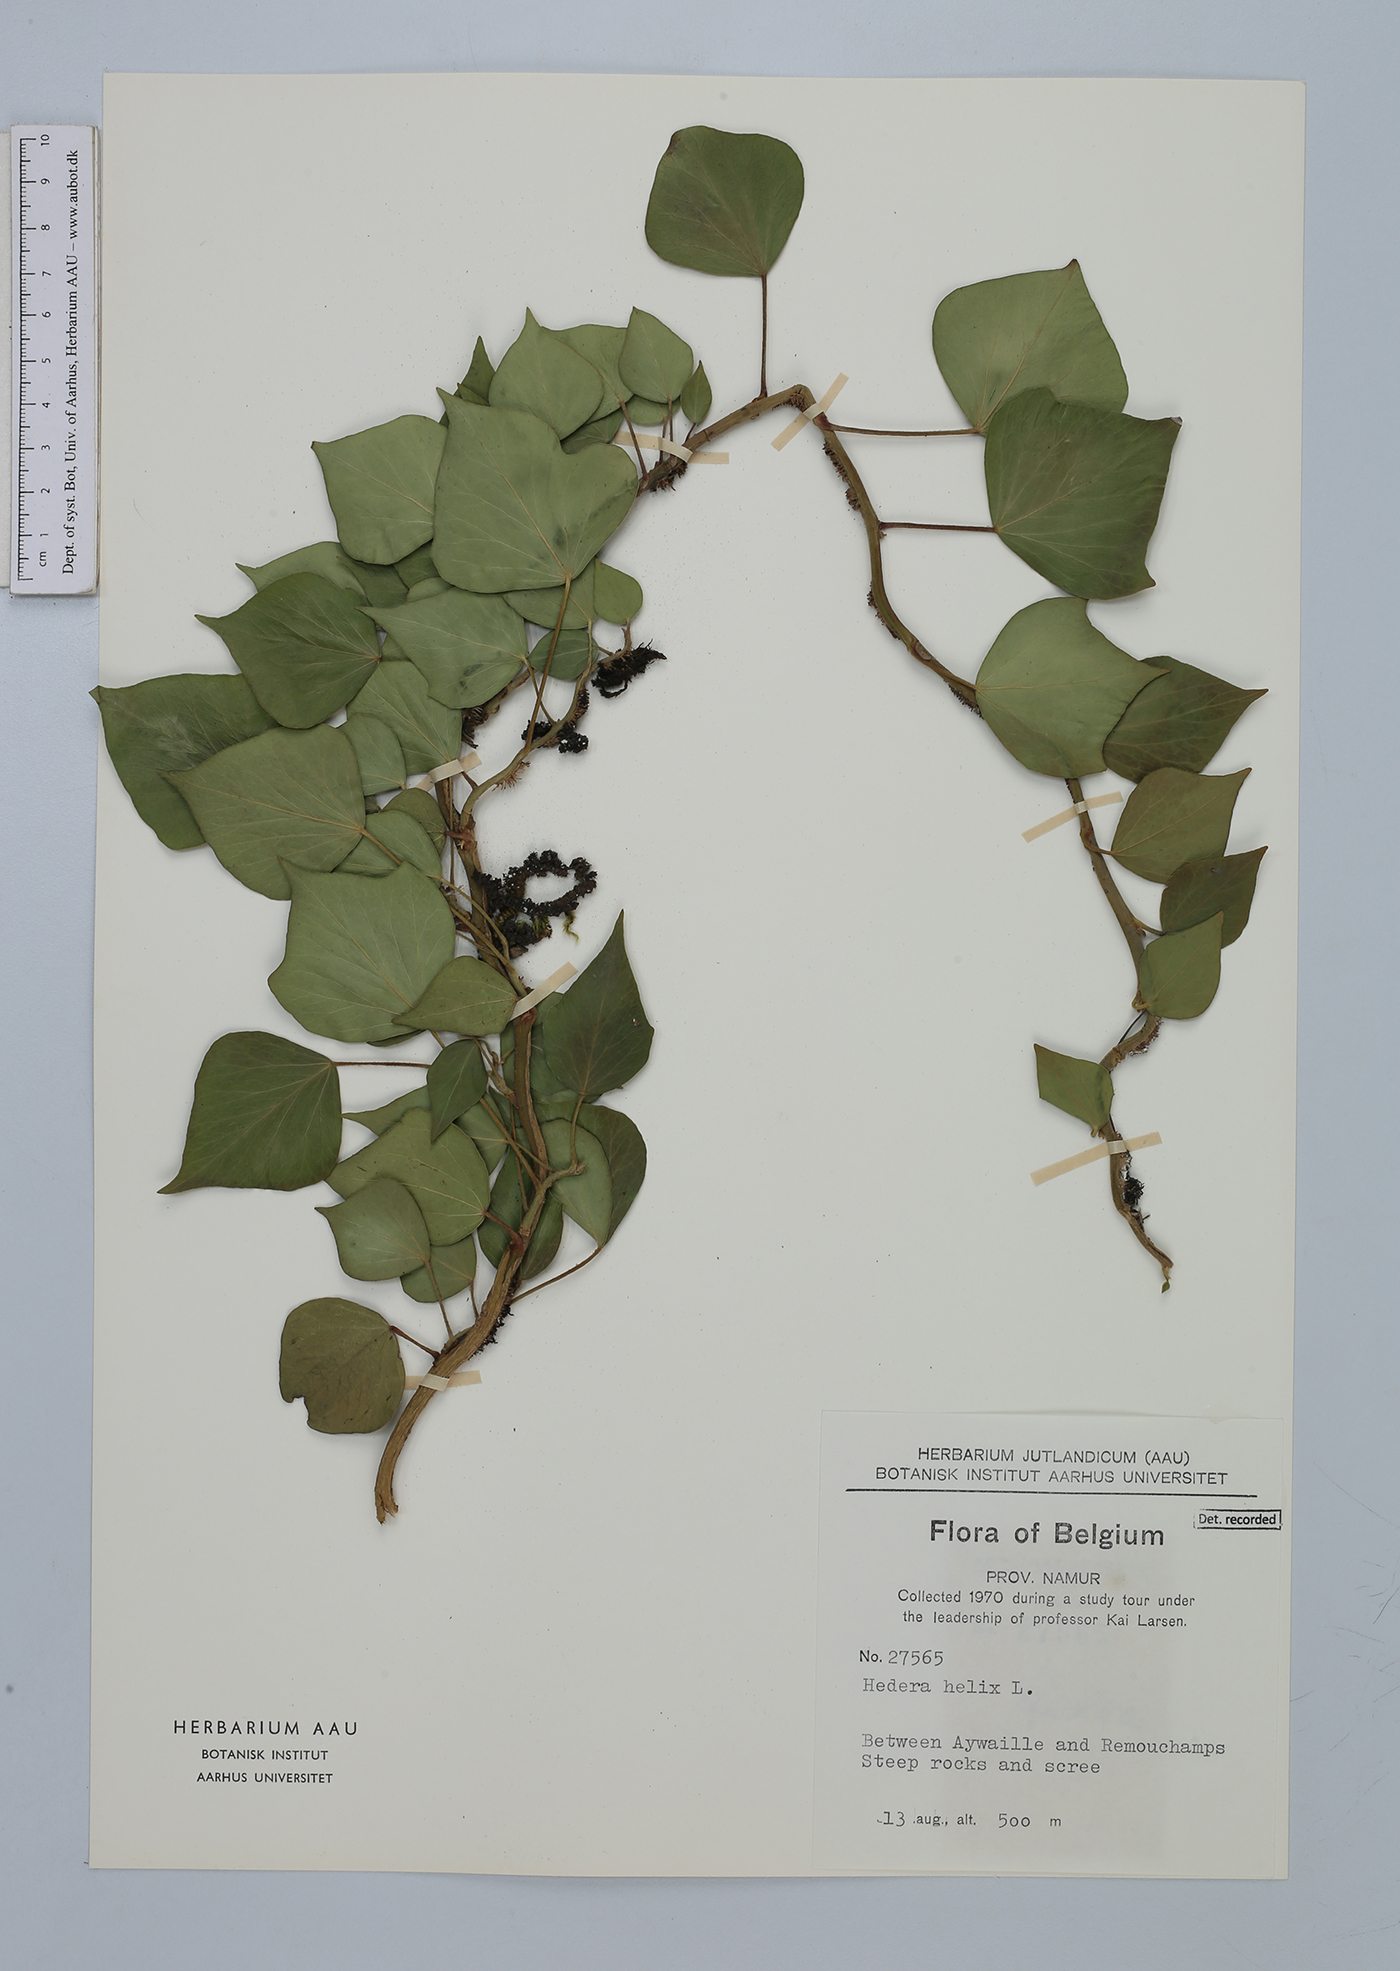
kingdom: Plantae
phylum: Tracheophyta
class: Magnoliopsida
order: Apiales
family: Araliaceae
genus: Hedera
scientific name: Hedera helix
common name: Ivy
